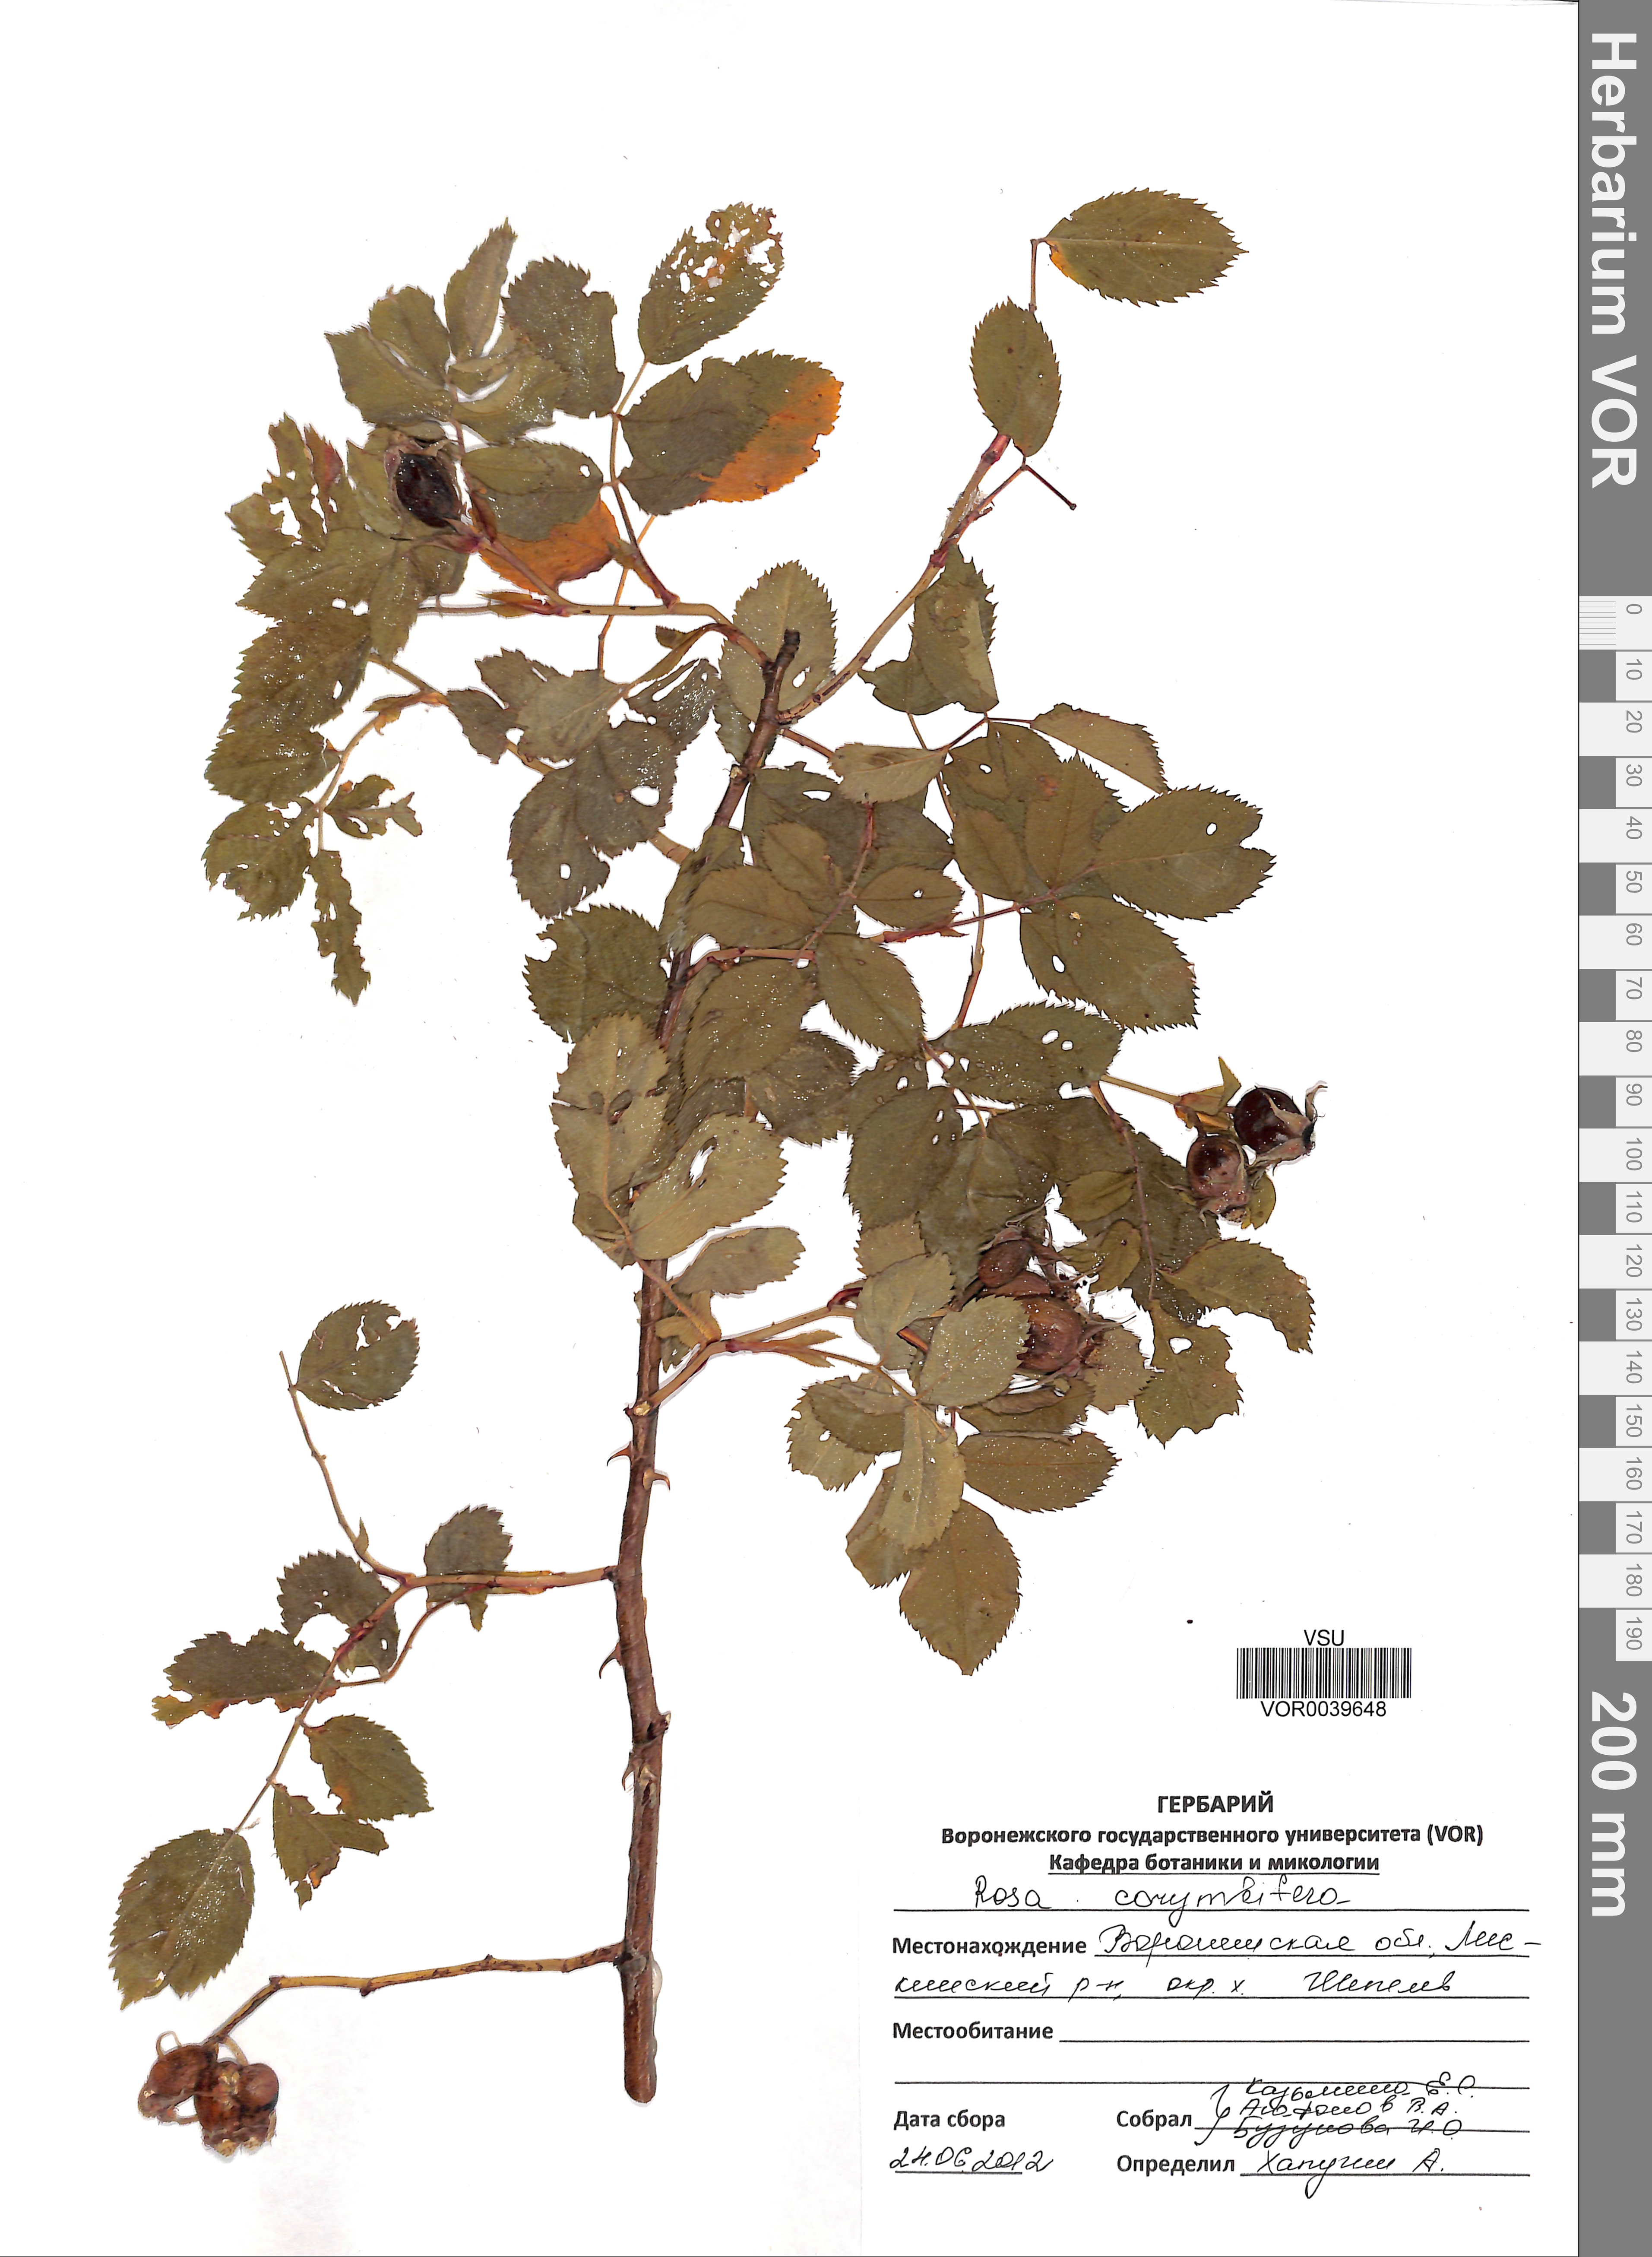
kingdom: Plantae
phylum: Tracheophyta
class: Magnoliopsida
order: Rosales
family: Rosaceae
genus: Rosa
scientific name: Rosa corymbifera
